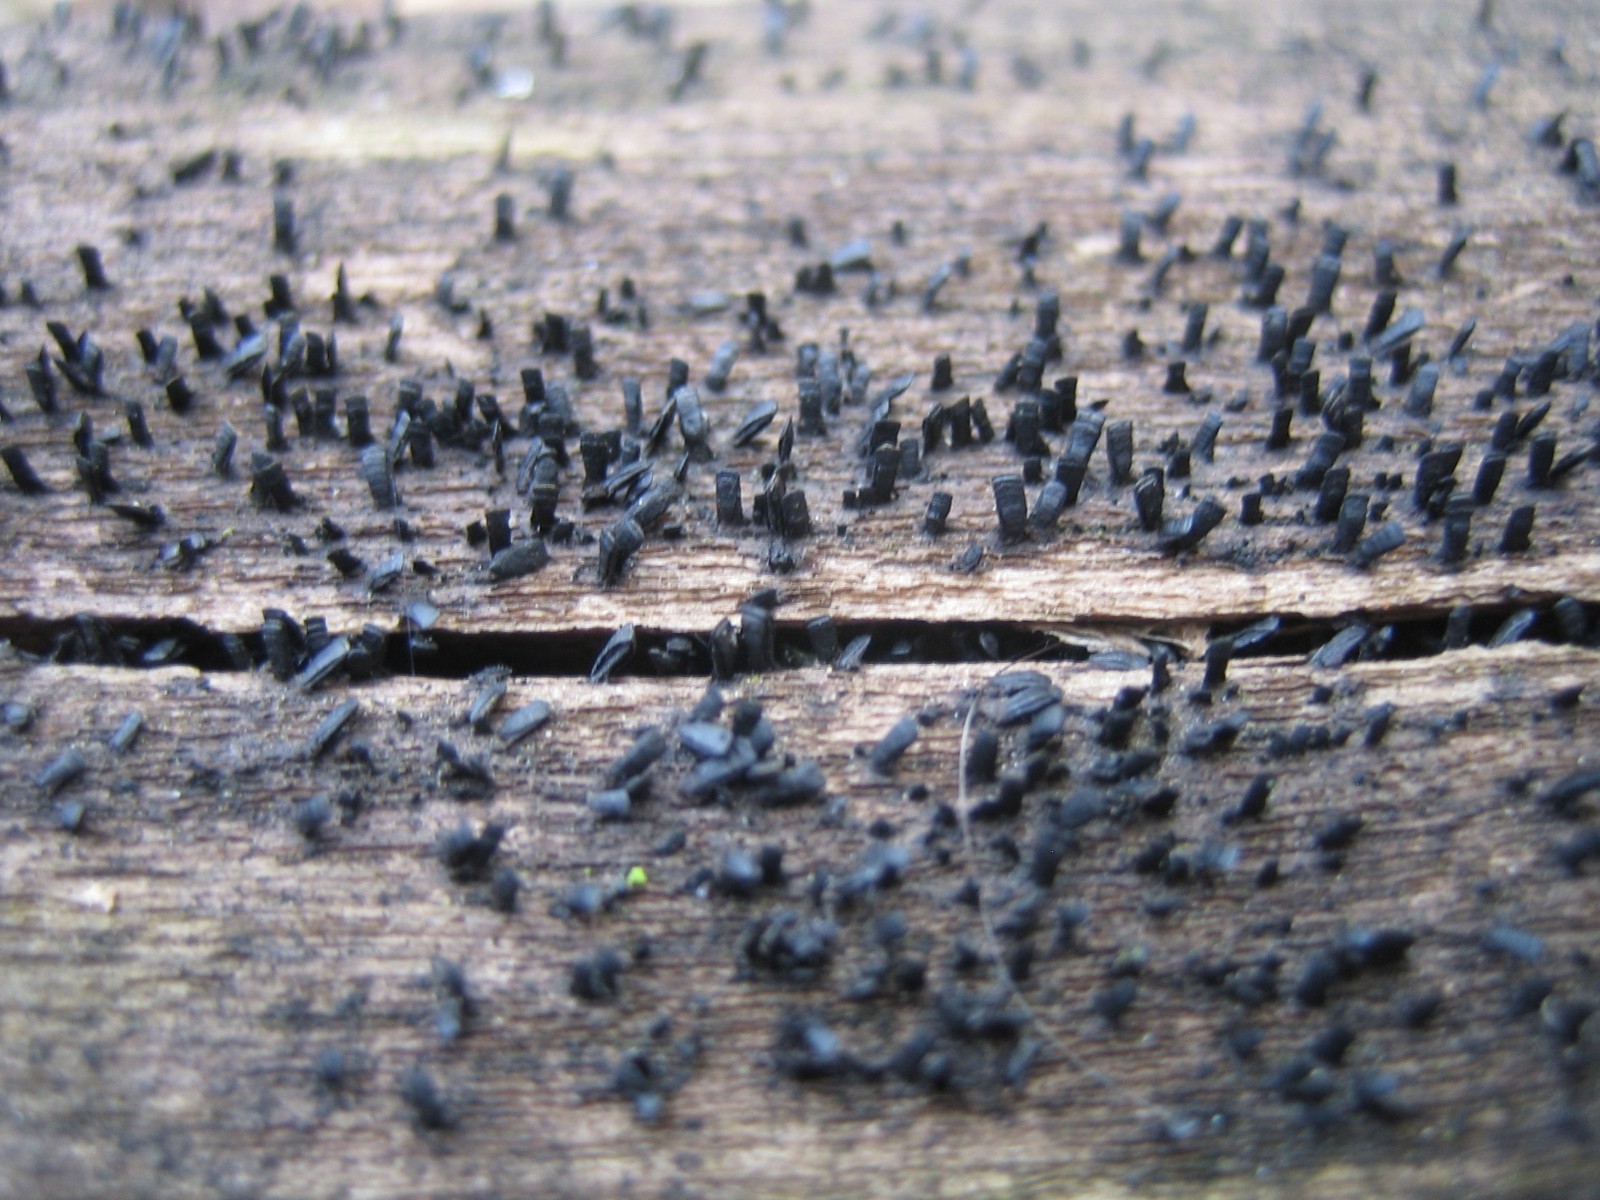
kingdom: Fungi
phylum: Ascomycota
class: Eurotiomycetes
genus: Glyphium
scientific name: Glyphium elatum
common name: kuløkse
